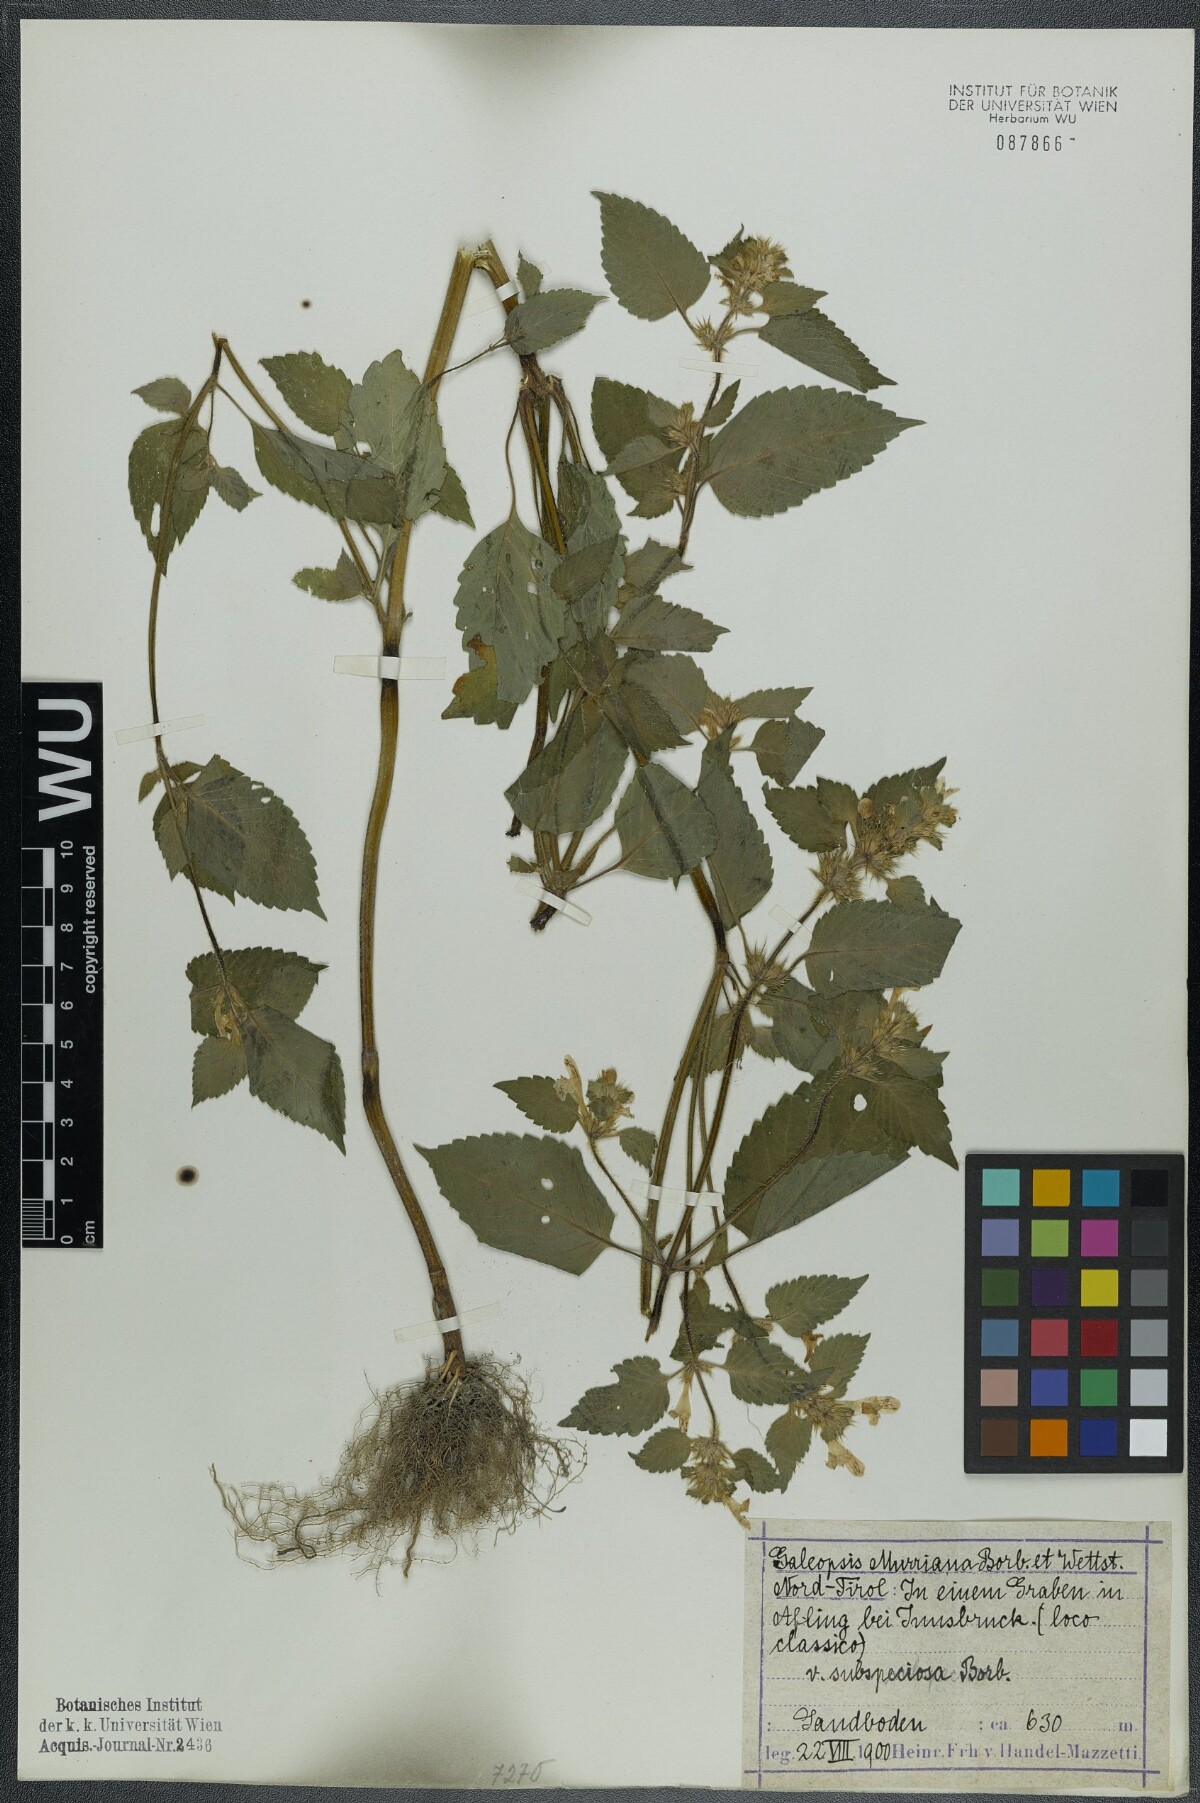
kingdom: Plantae
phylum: Tracheophyta
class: Magnoliopsida
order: Lamiales
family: Lamiaceae
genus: Galeopsis
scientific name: Galeopsis pubescens
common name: Downy hemp-nettle
